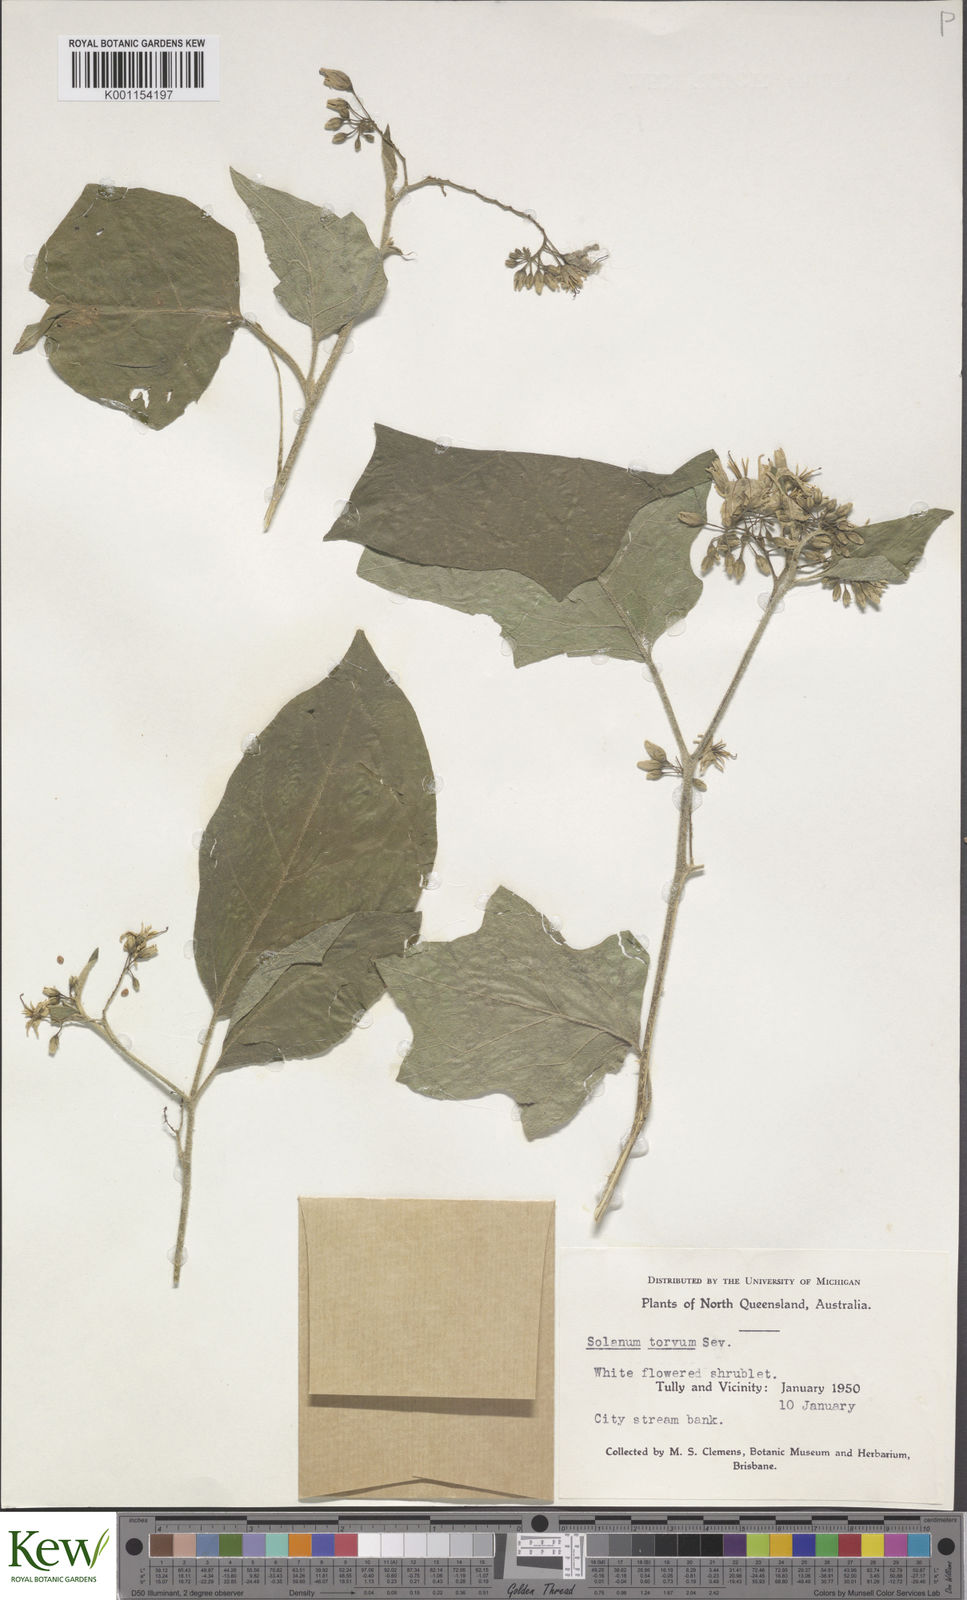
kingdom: Plantae
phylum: Tracheophyta
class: Magnoliopsida
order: Solanales
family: Solanaceae
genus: Solanum
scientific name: Solanum torvum
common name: Turkey berry
